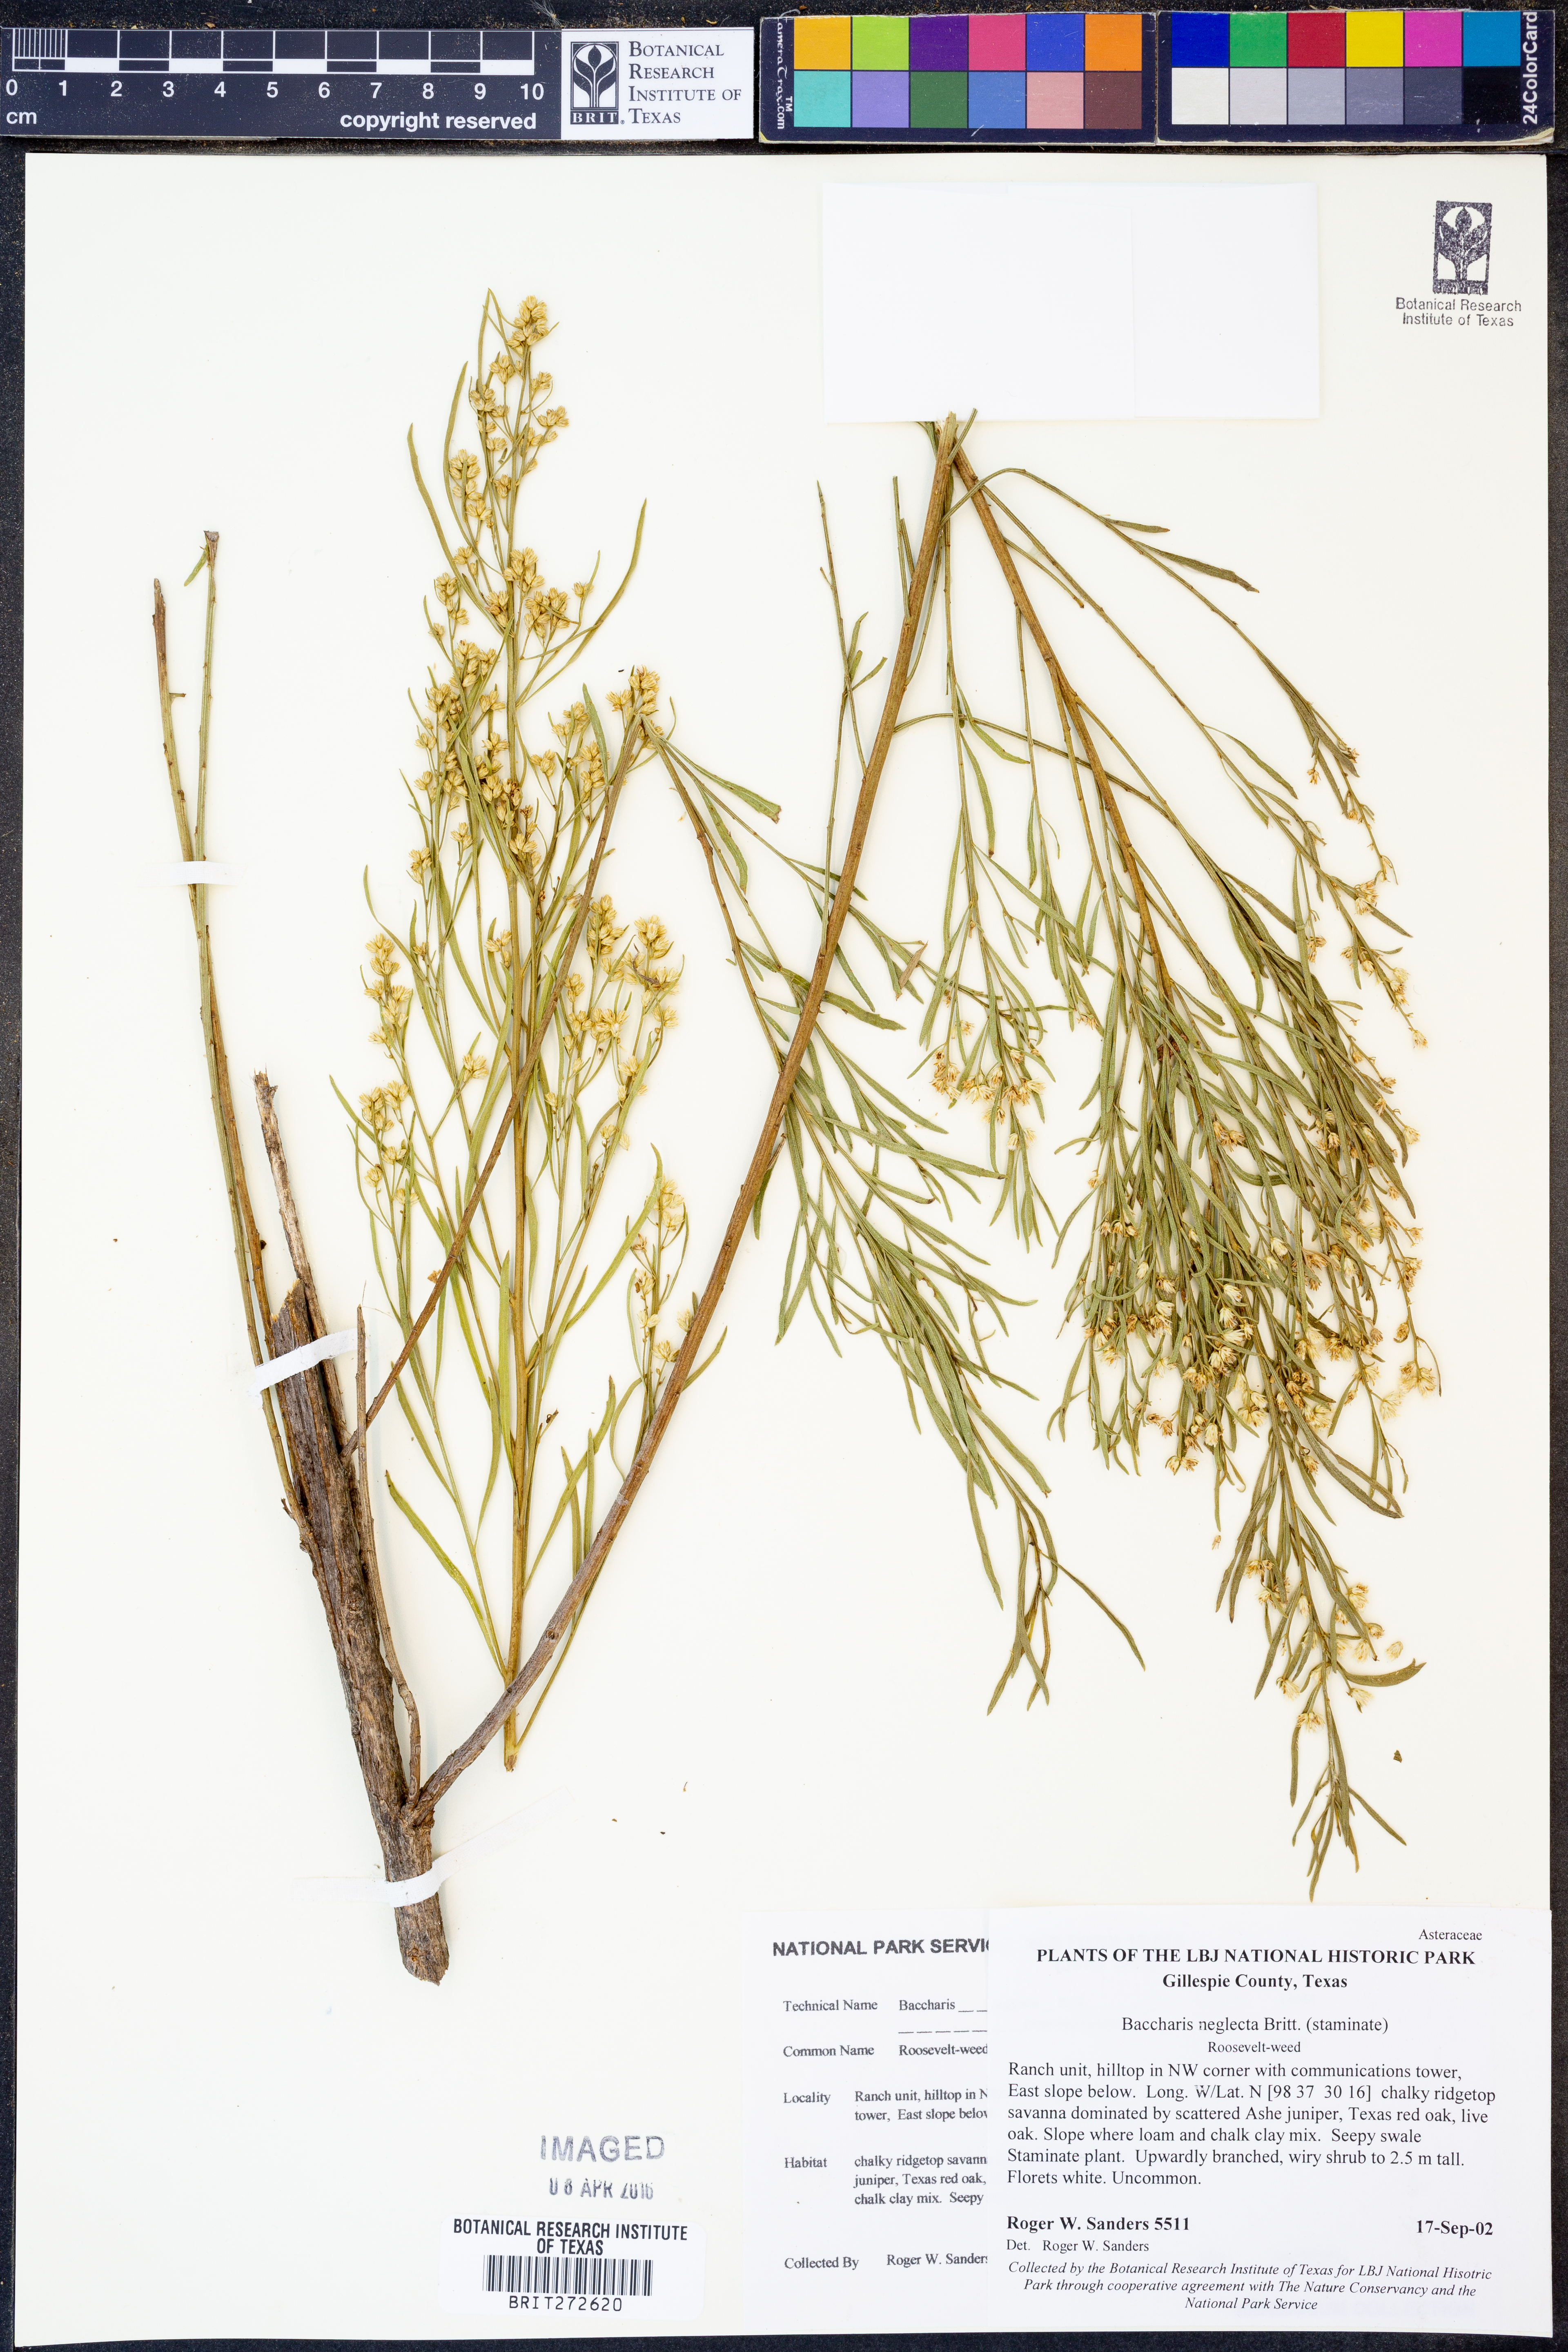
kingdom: Plantae
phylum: Tracheophyta
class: Magnoliopsida
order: Asterales
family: Asteraceae
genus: Baccharis
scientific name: Baccharis neglecta
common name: Roosevelt-weed
